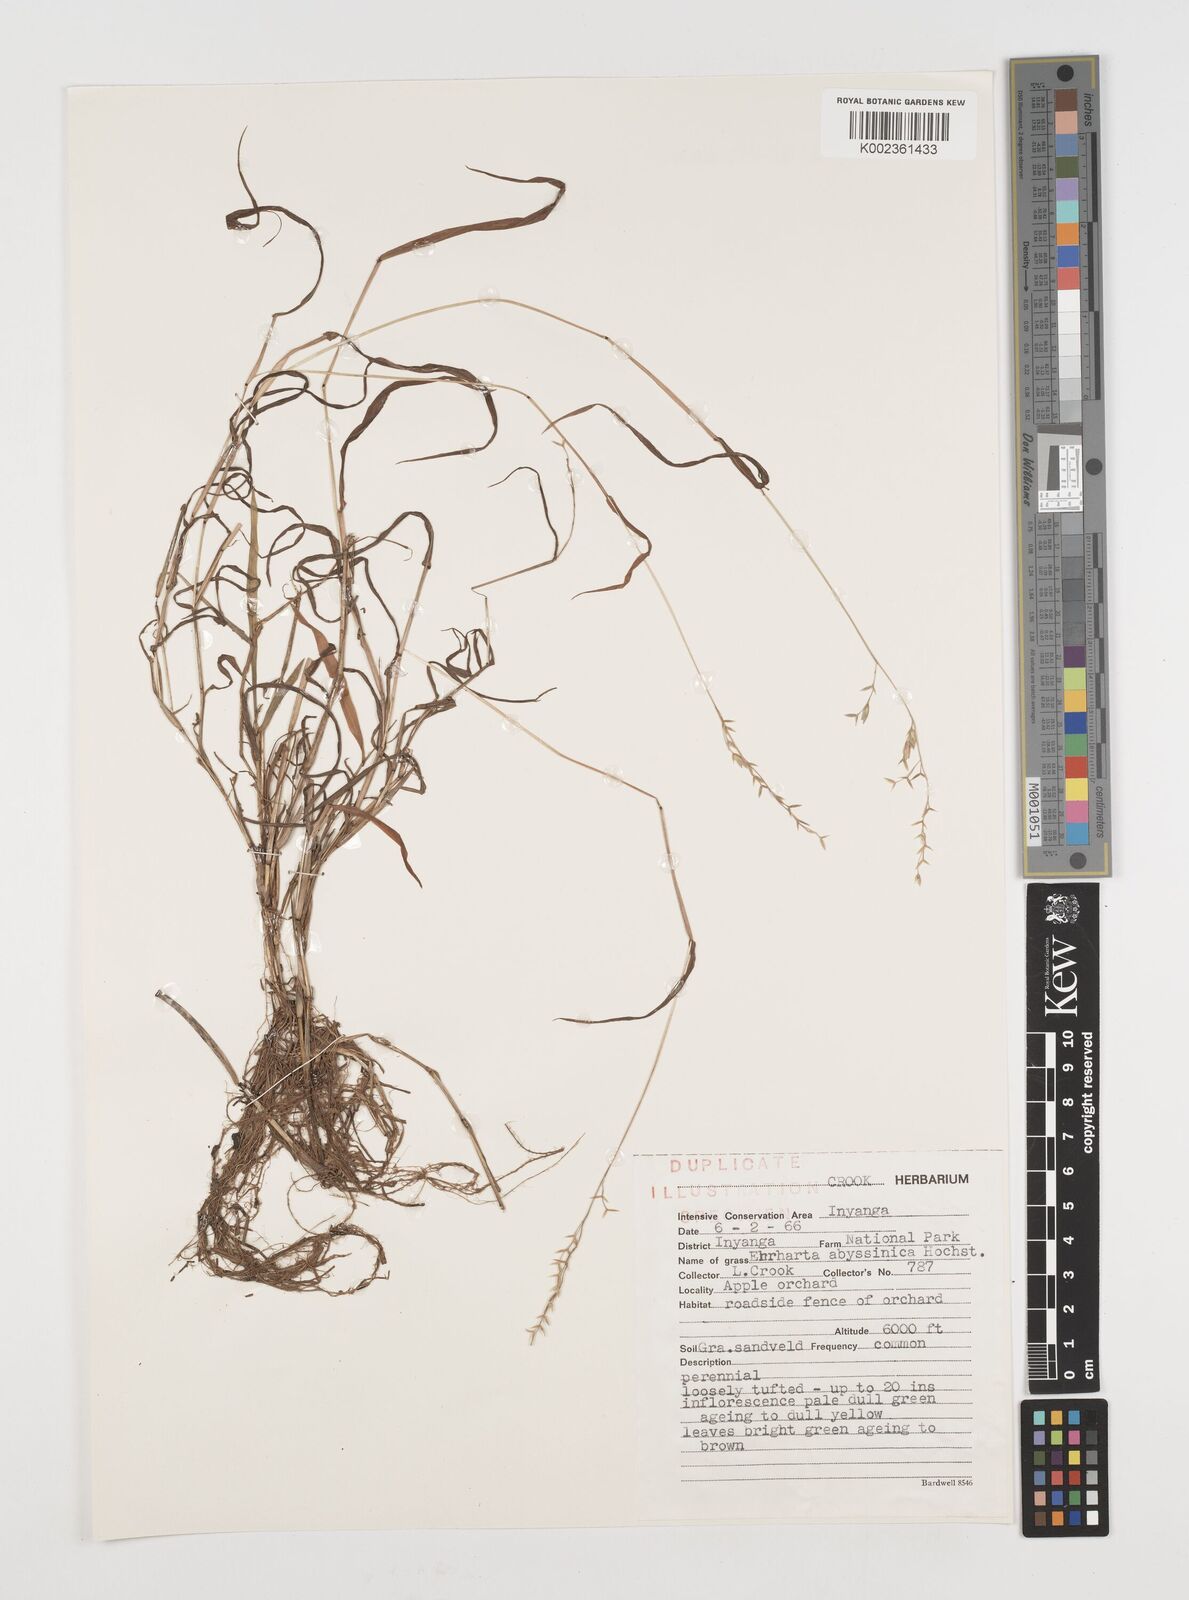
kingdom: Plantae
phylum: Tracheophyta
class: Liliopsida
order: Poales
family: Poaceae
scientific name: Poaceae
